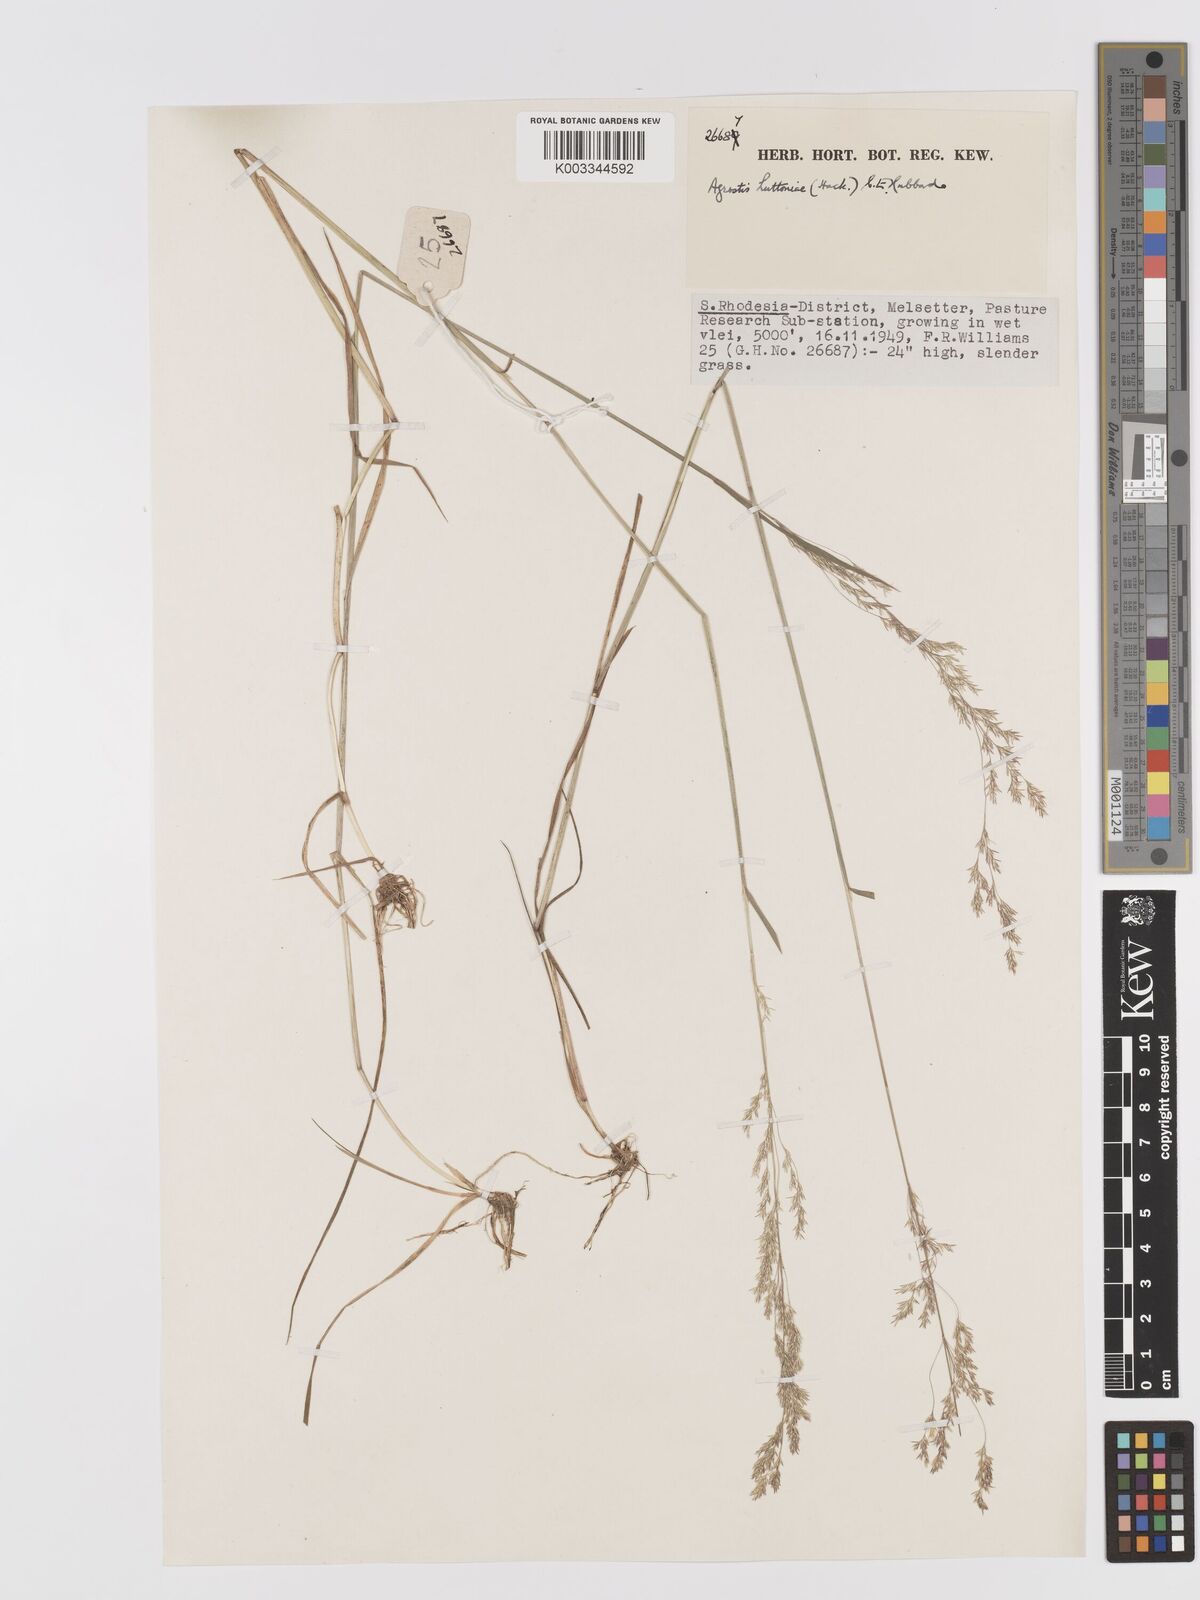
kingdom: Plantae
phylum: Tracheophyta
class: Liliopsida
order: Poales
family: Poaceae
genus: Lachnagrostis
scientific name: Lachnagrostis lachnantha
